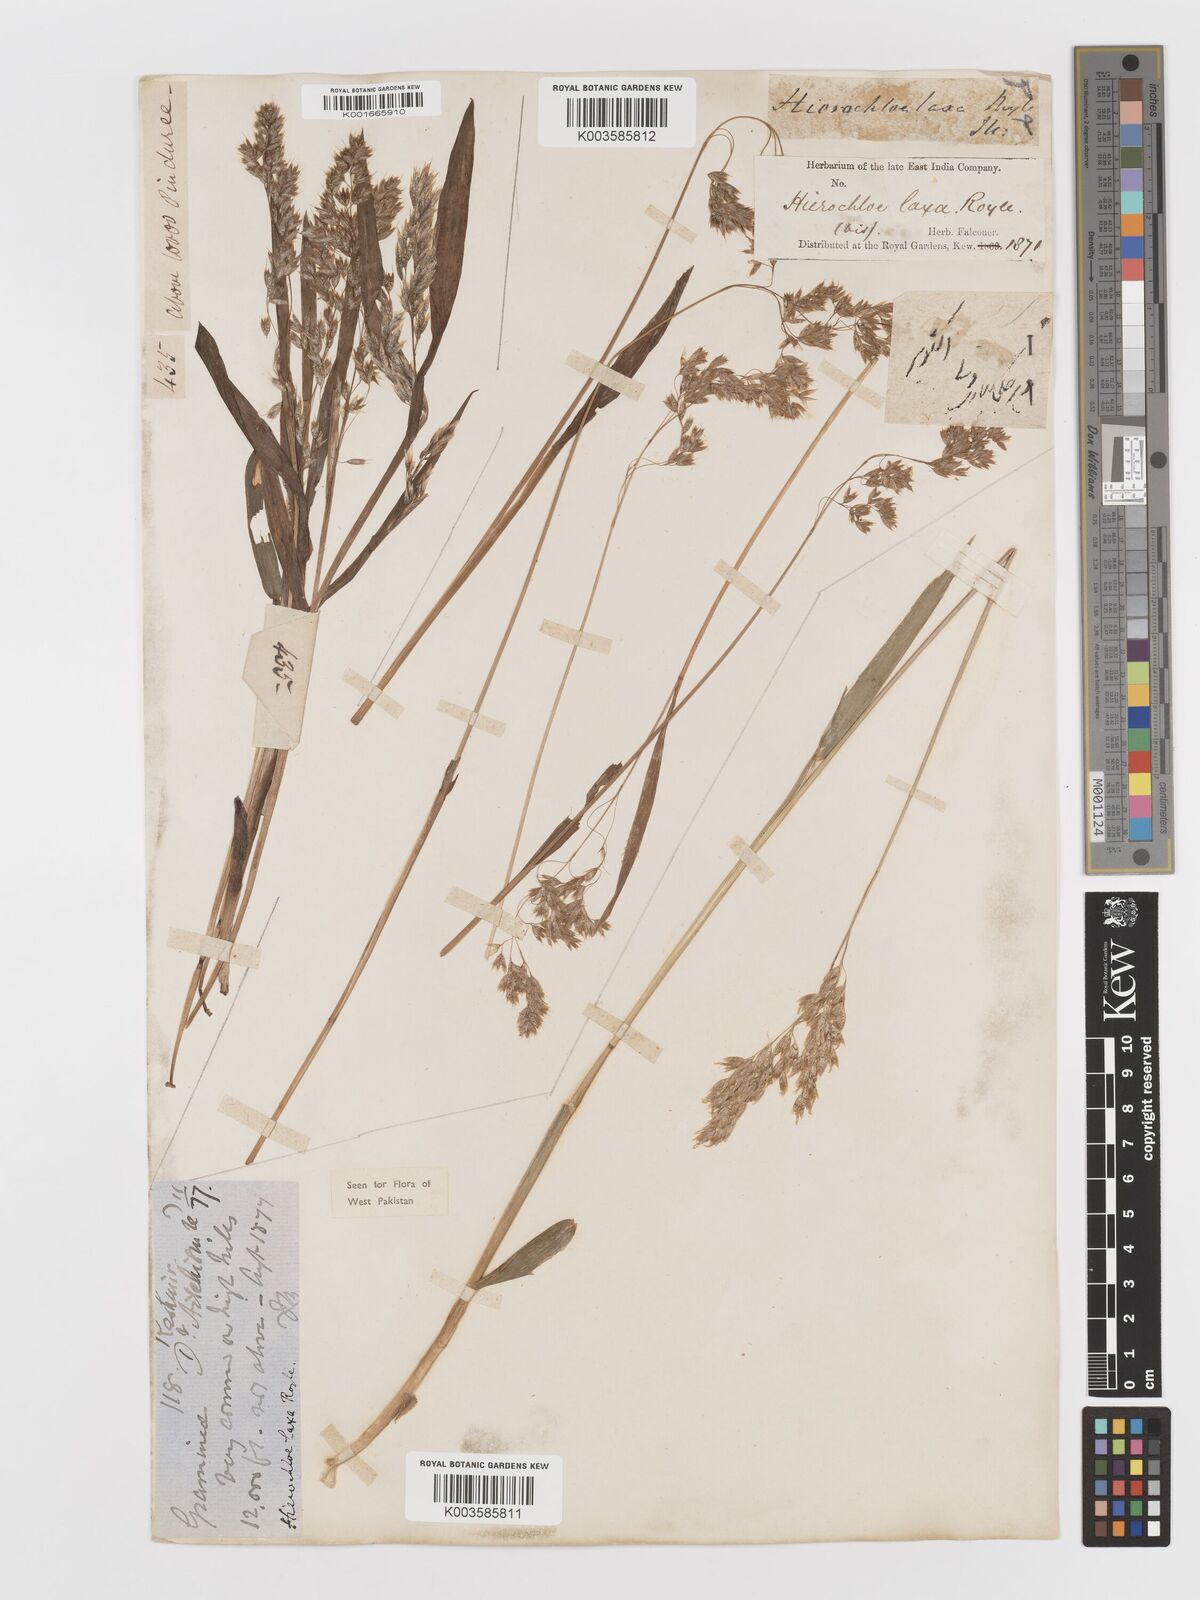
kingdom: Plantae
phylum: Tracheophyta
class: Liliopsida
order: Poales
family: Poaceae
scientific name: Poaceae
